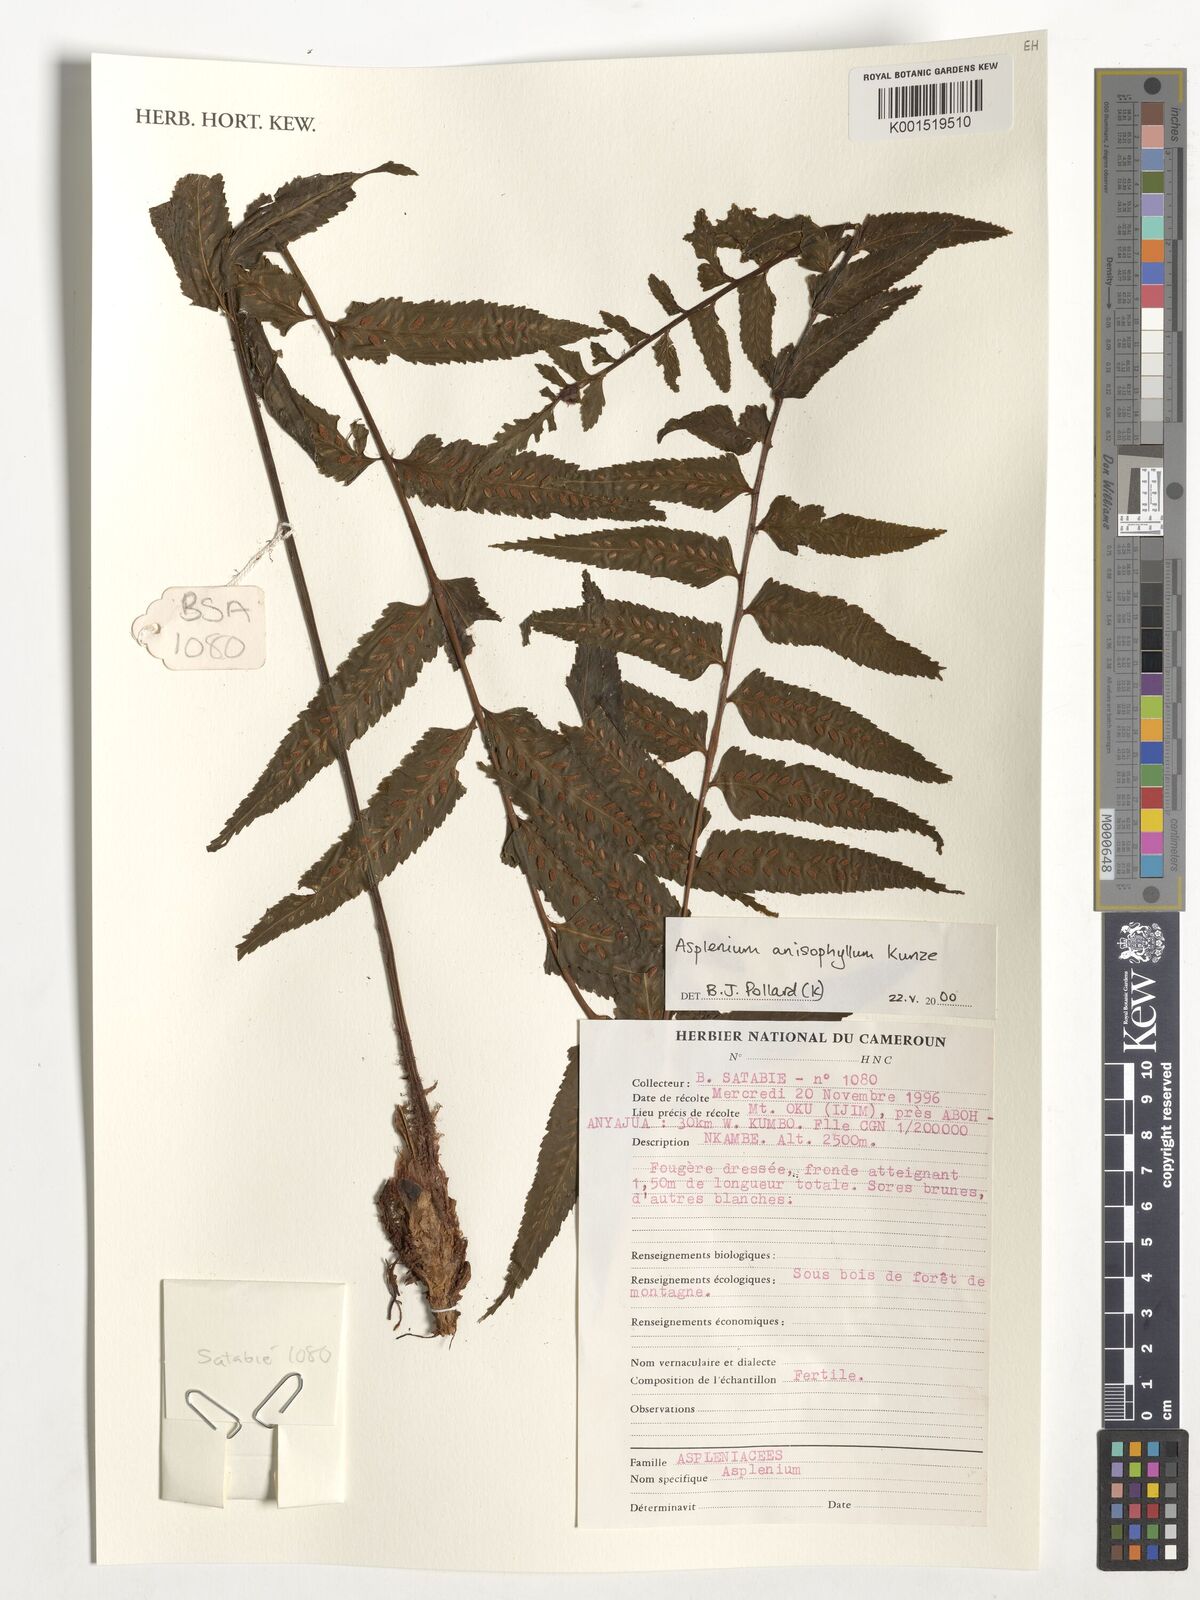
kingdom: Plantae
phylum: Tracheophyta
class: Polypodiopsida
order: Polypodiales
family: Aspleniaceae
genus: Asplenium
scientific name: Asplenium anisophyllum
